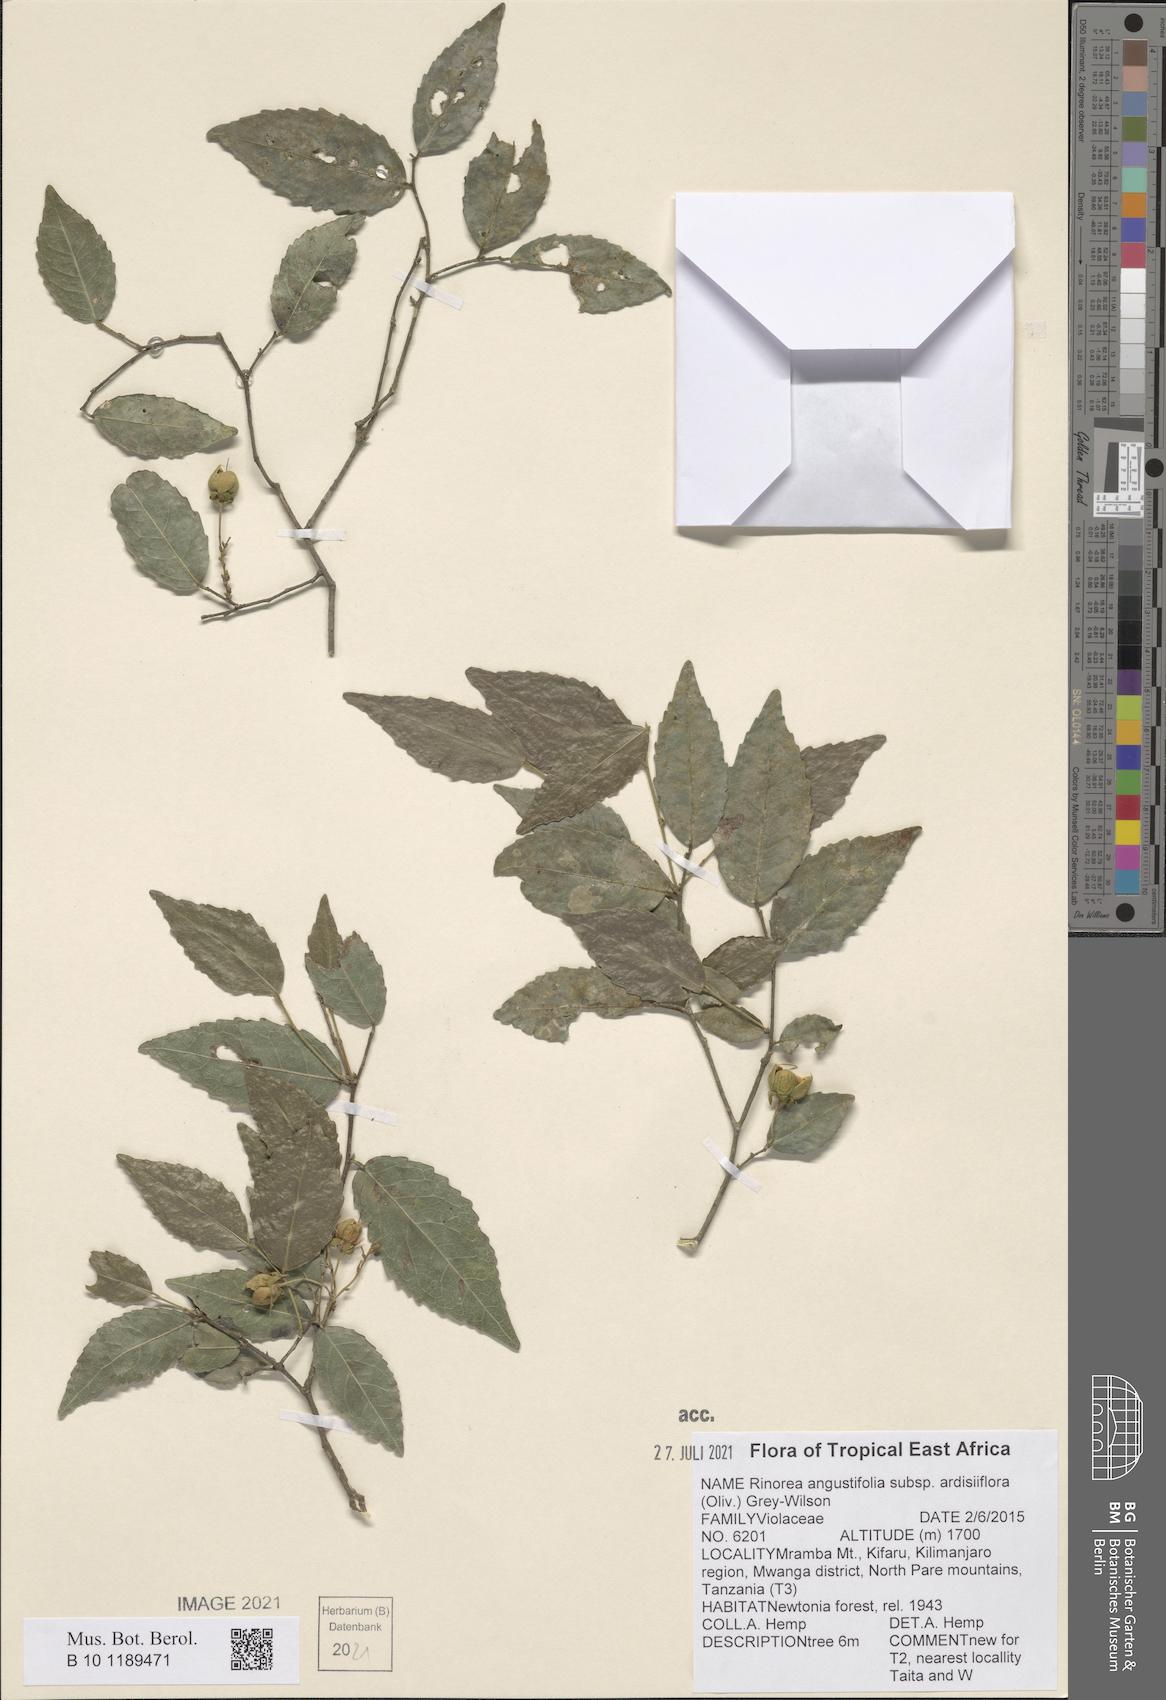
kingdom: Plantae
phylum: Tracheophyta
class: Magnoliopsida
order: Malpighiales
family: Violaceae
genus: Rinorea
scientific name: Rinorea angustifolia
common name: White violet-bush
